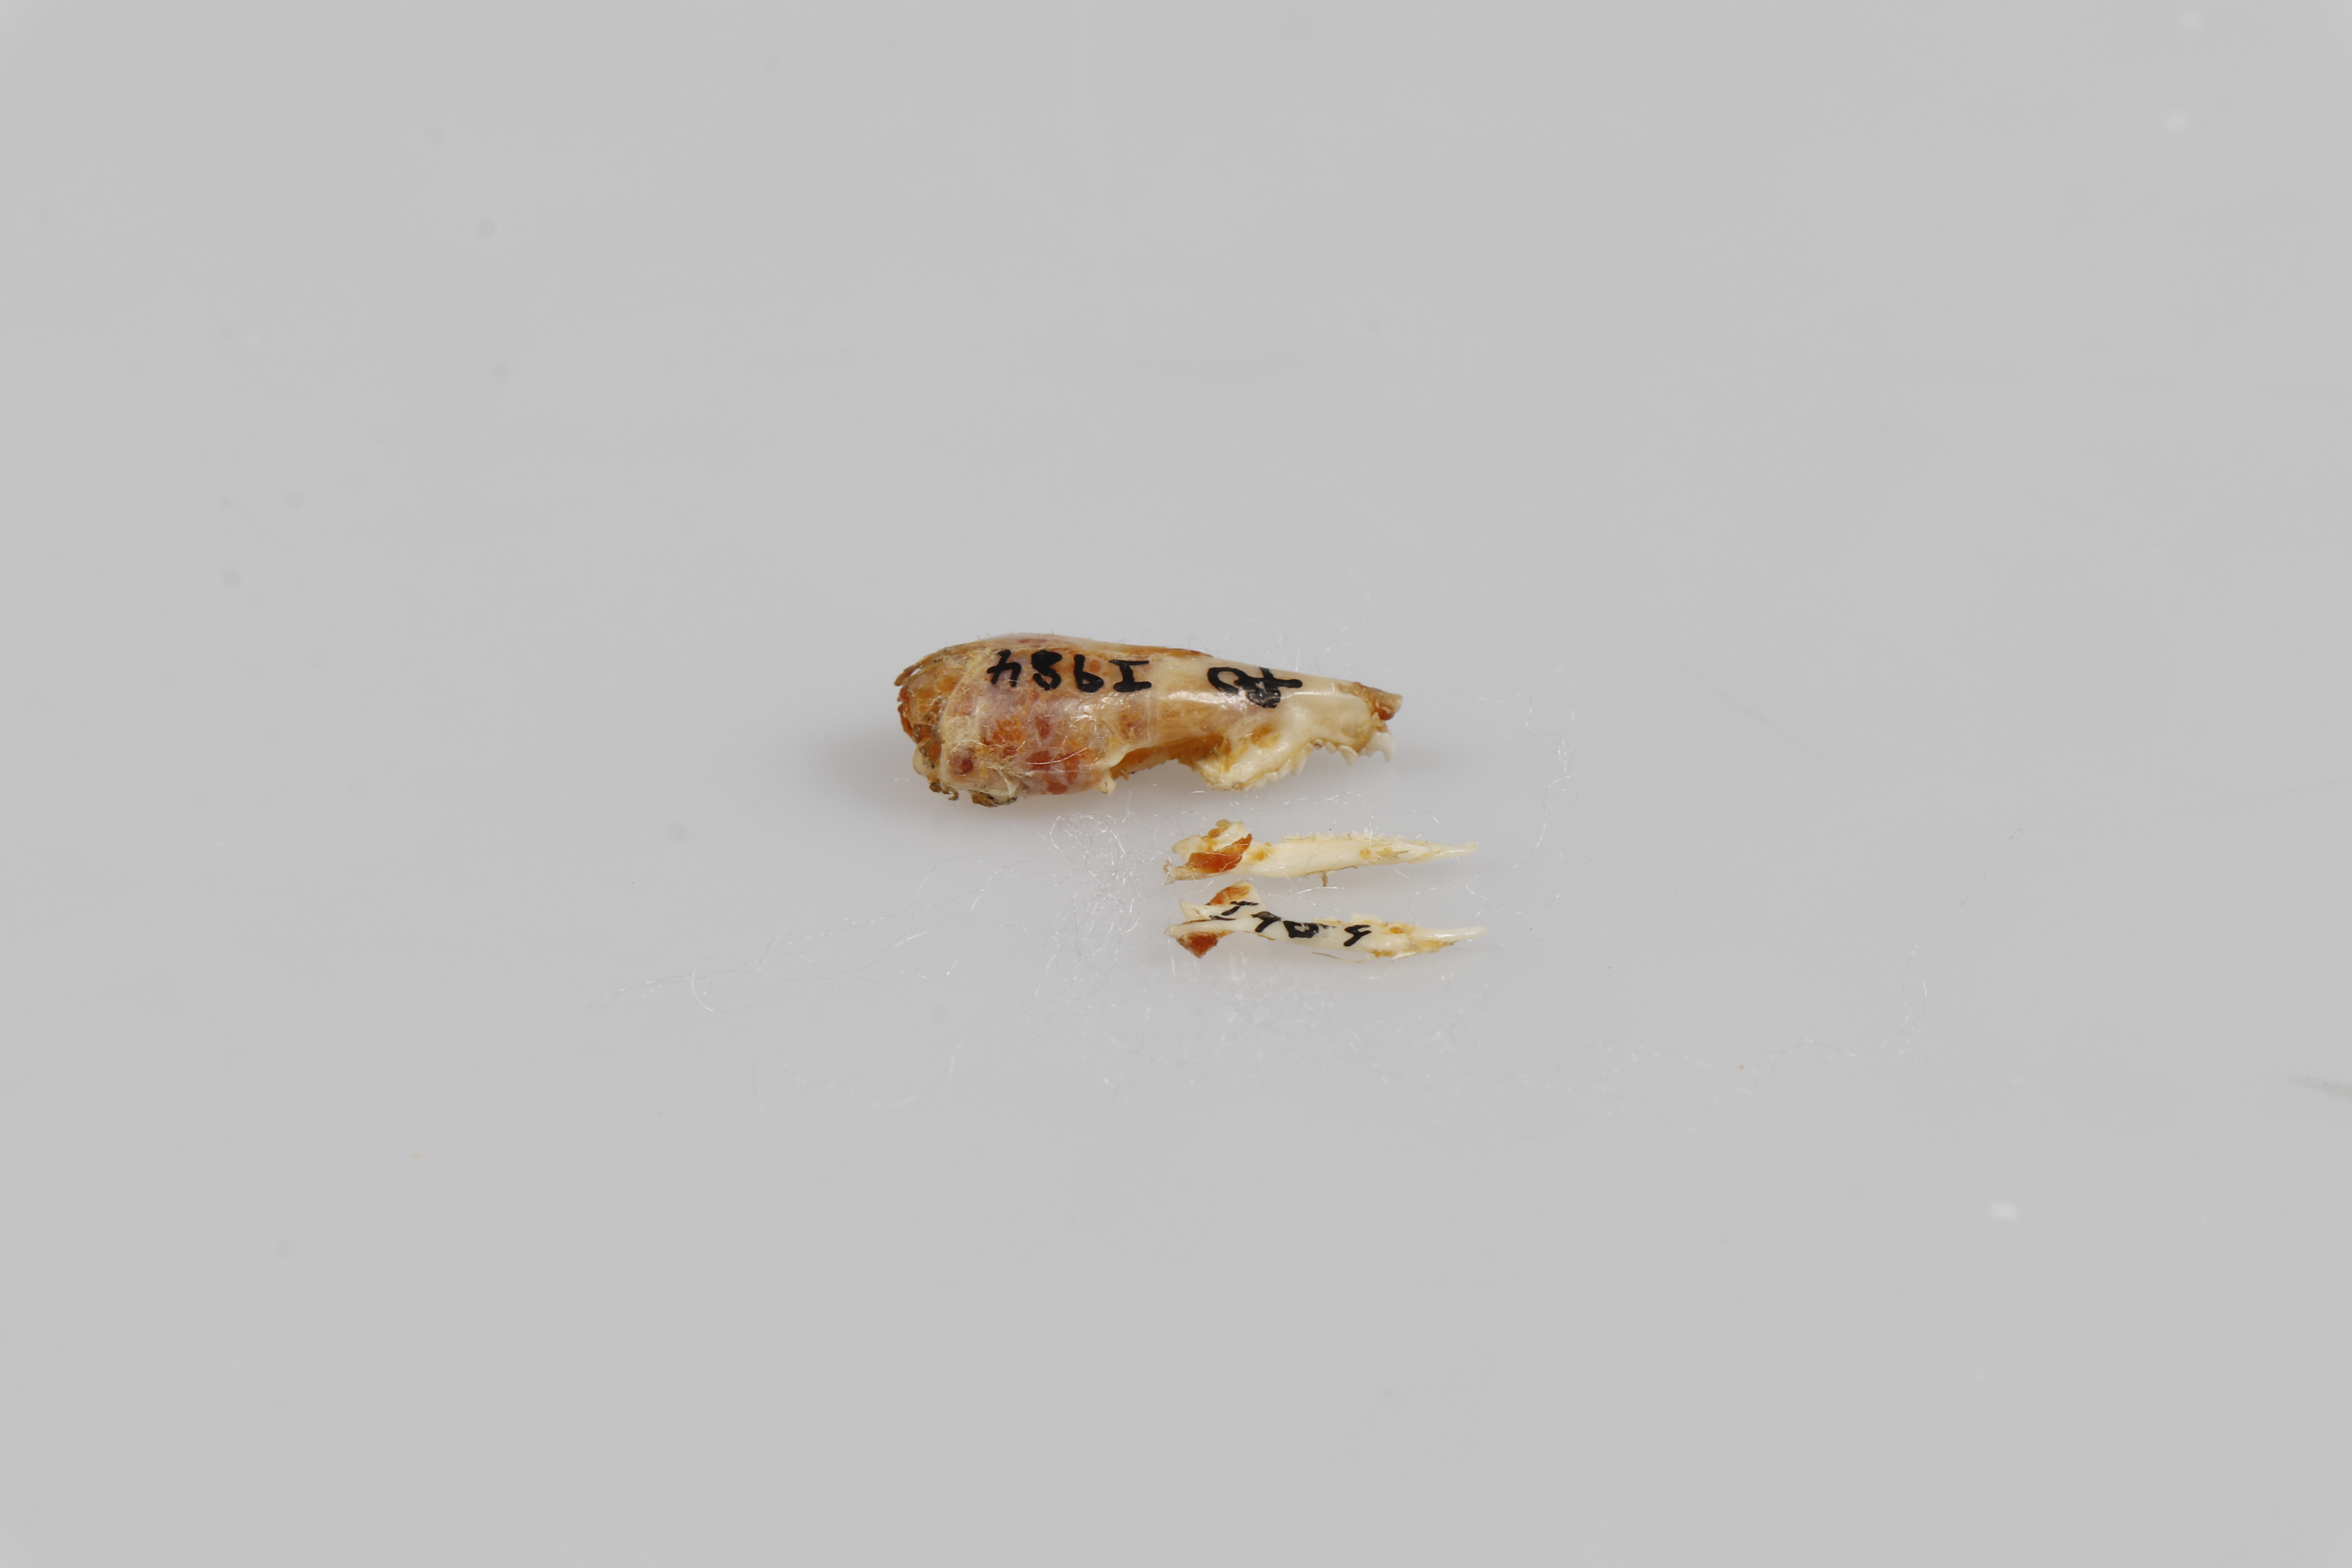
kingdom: Animalia
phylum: Chordata
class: Mammalia
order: Soricomorpha
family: Soricidae
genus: Crocidura
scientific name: Crocidura russula
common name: Greater white-toothed shrew
